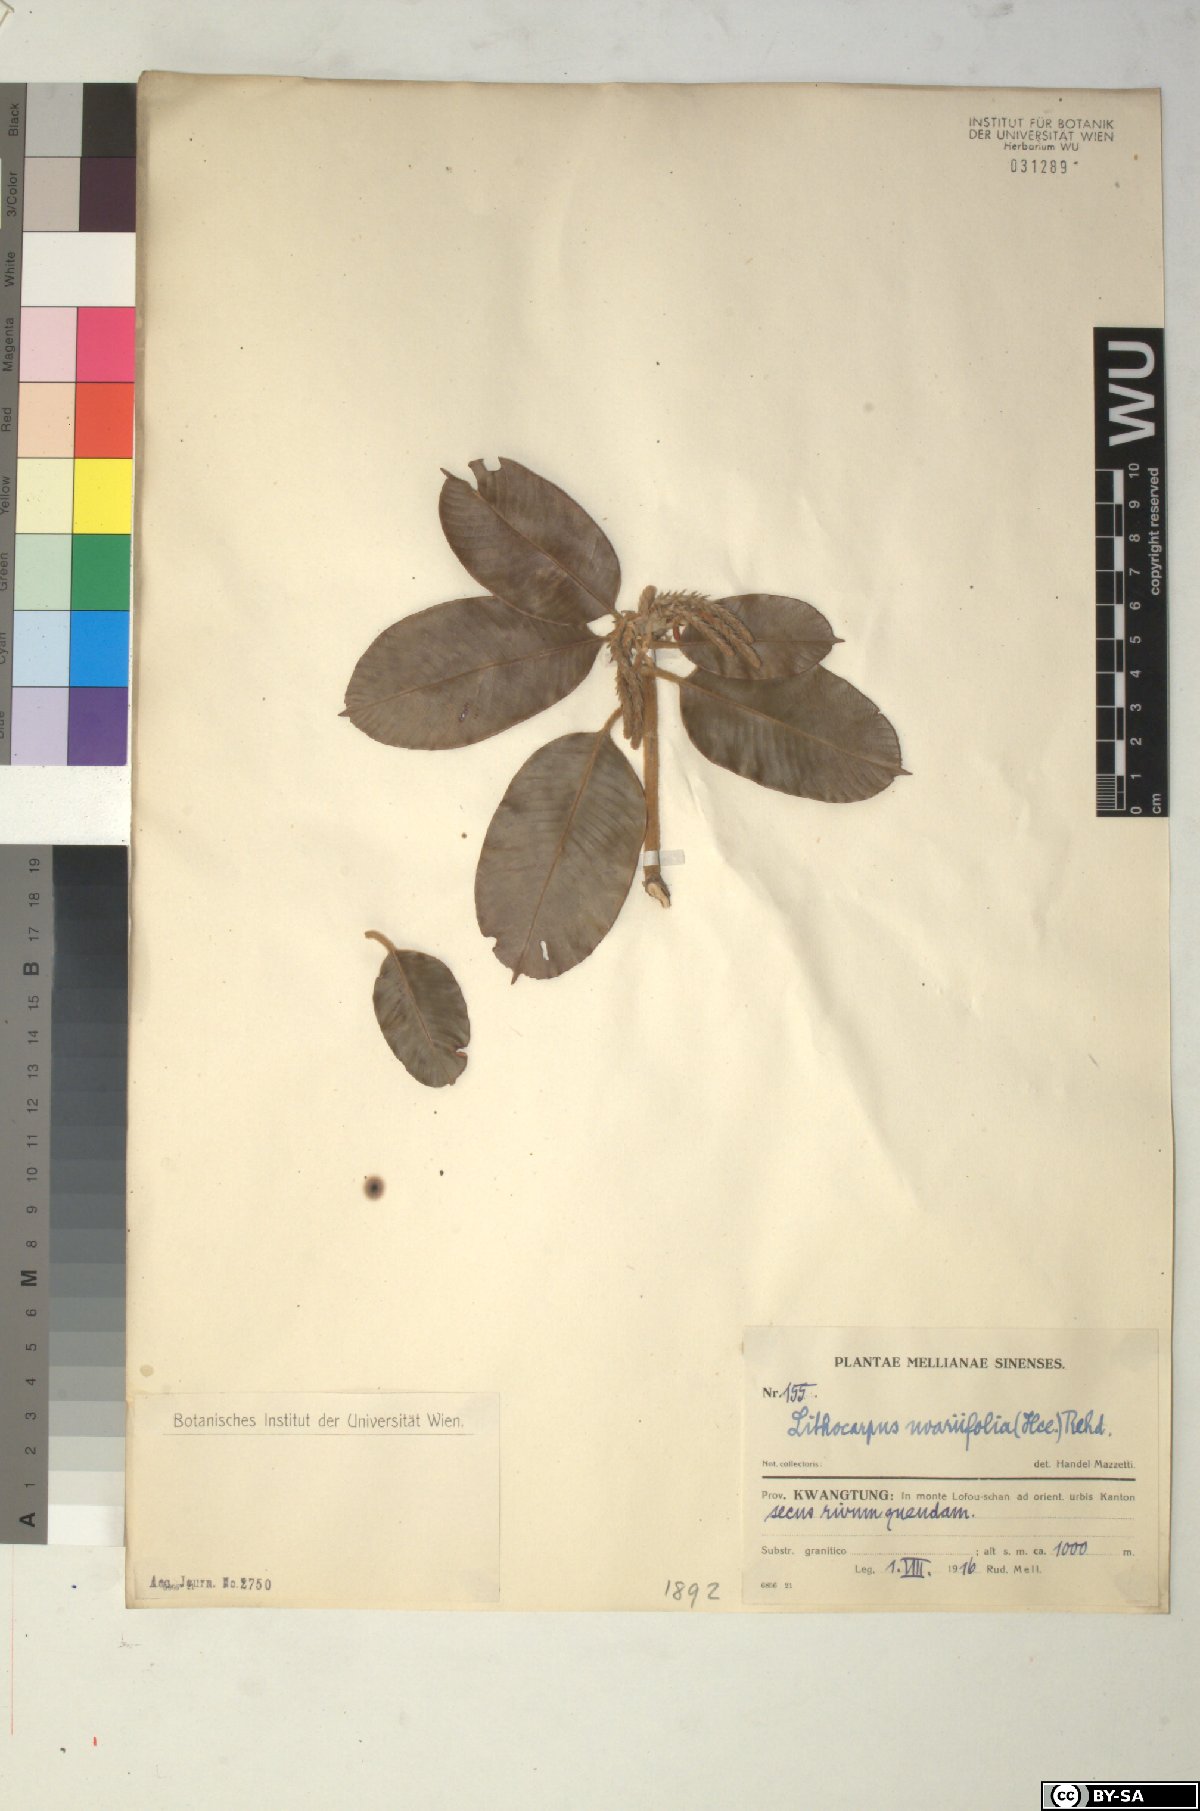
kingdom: Plantae
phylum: Tracheophyta
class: Magnoliopsida
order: Fagales
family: Fagaceae
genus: Lithocarpus
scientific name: Lithocarpus uvariifolius
